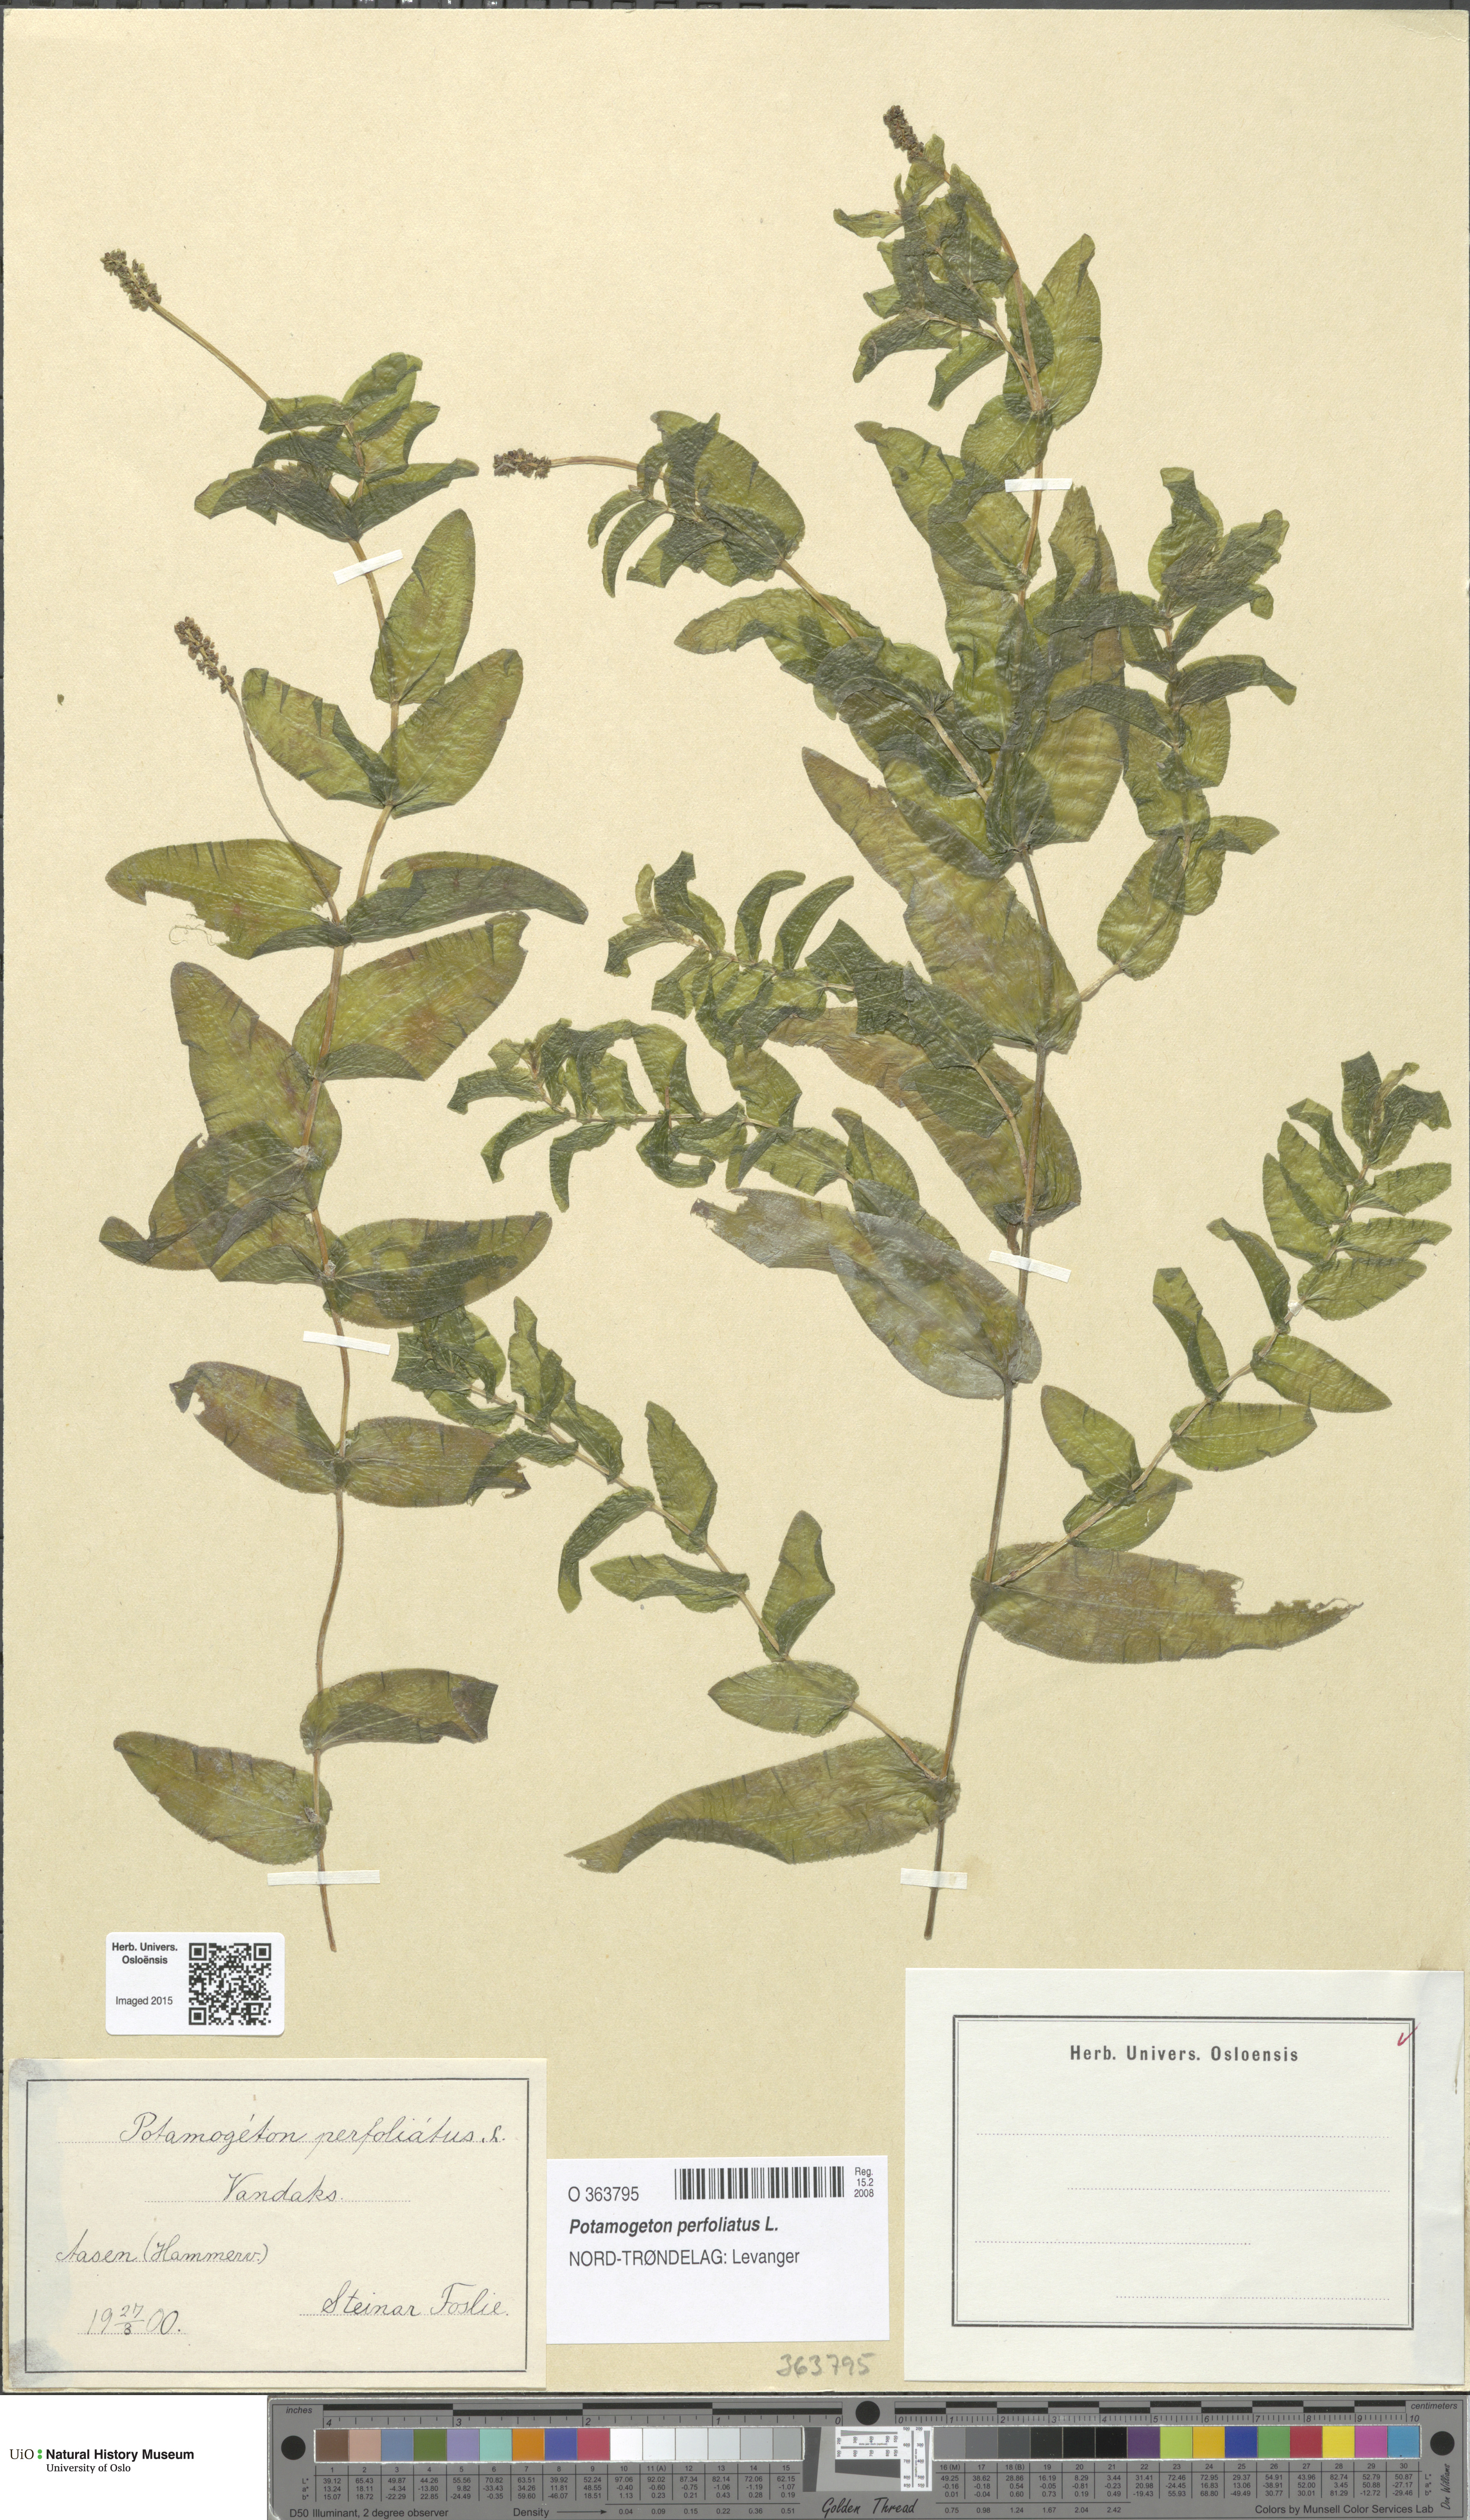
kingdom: Plantae
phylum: Tracheophyta
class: Liliopsida
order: Alismatales
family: Potamogetonaceae
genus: Potamogeton
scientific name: Potamogeton perfoliatus
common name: Perfoliate pondweed
